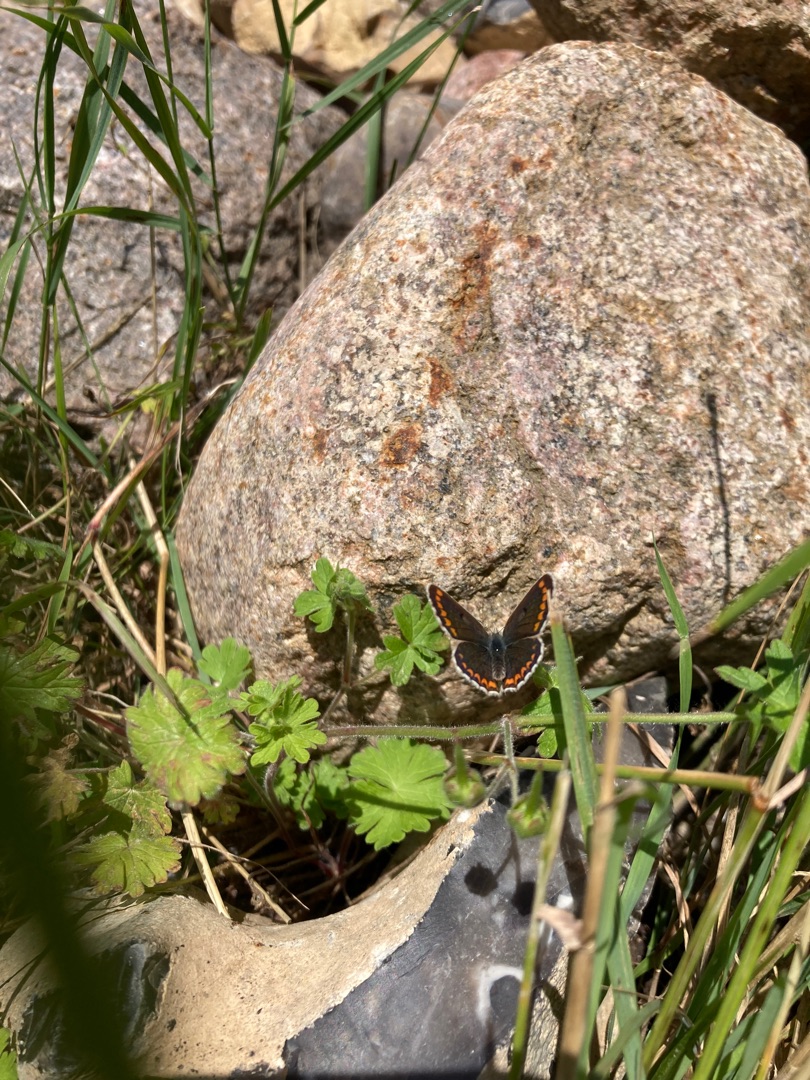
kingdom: Animalia
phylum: Arthropoda
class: Insecta
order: Lepidoptera
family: Lycaenidae
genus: Aricia
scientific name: Aricia agestis
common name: Rødplettet blåfugl
